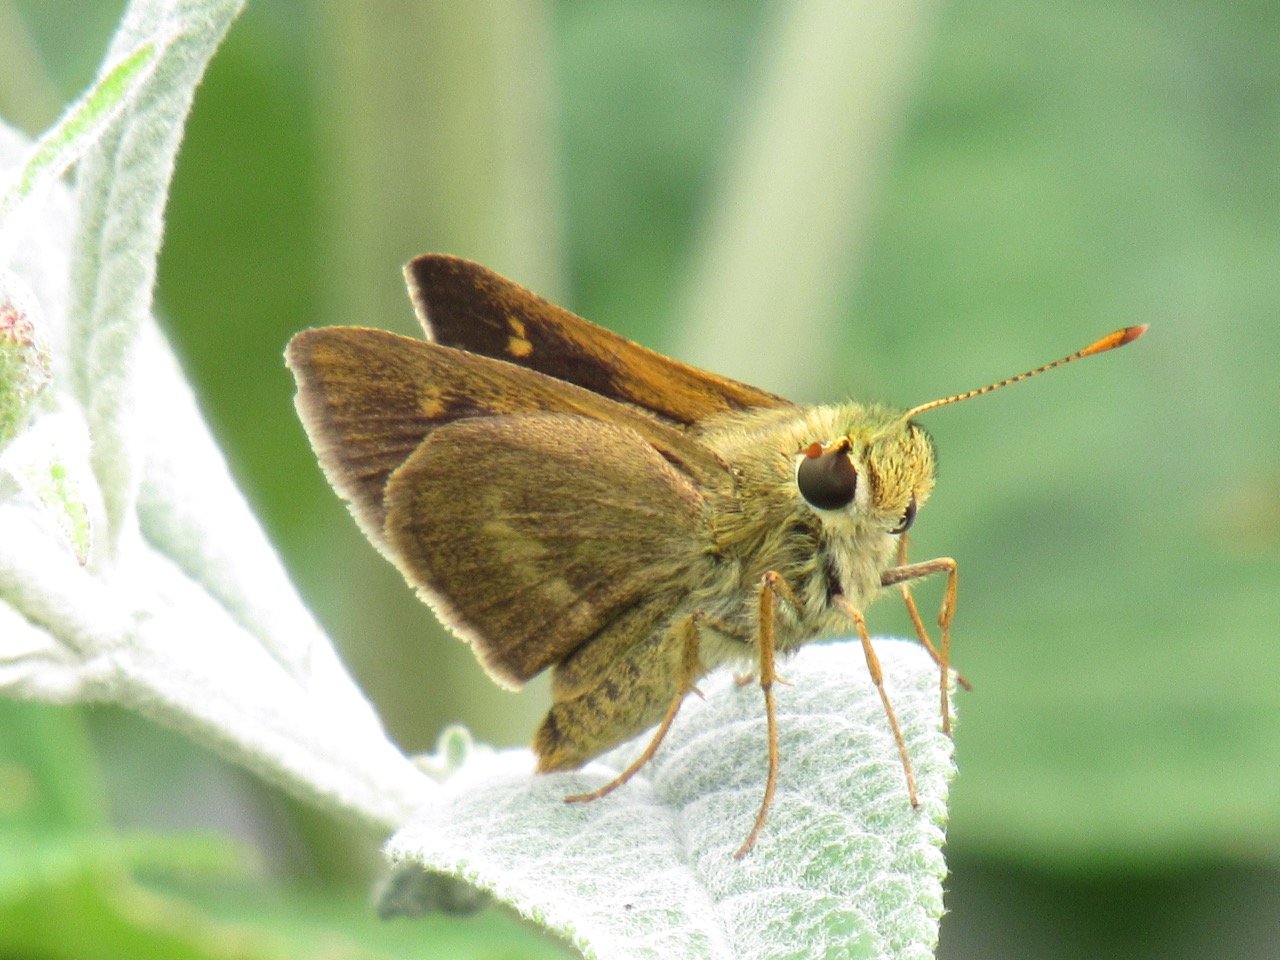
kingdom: Animalia
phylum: Arthropoda
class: Insecta
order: Lepidoptera
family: Hesperiidae
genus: Polites
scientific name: Polites egeremet
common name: Northern Broken-Dash
